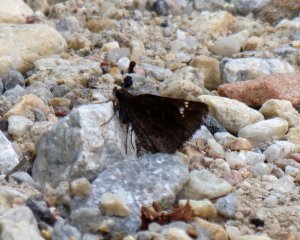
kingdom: Animalia
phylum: Arthropoda
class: Insecta
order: Lepidoptera
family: Hesperiidae
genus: Mastor
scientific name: Mastor vialis
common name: Common Roadside-Skipper
